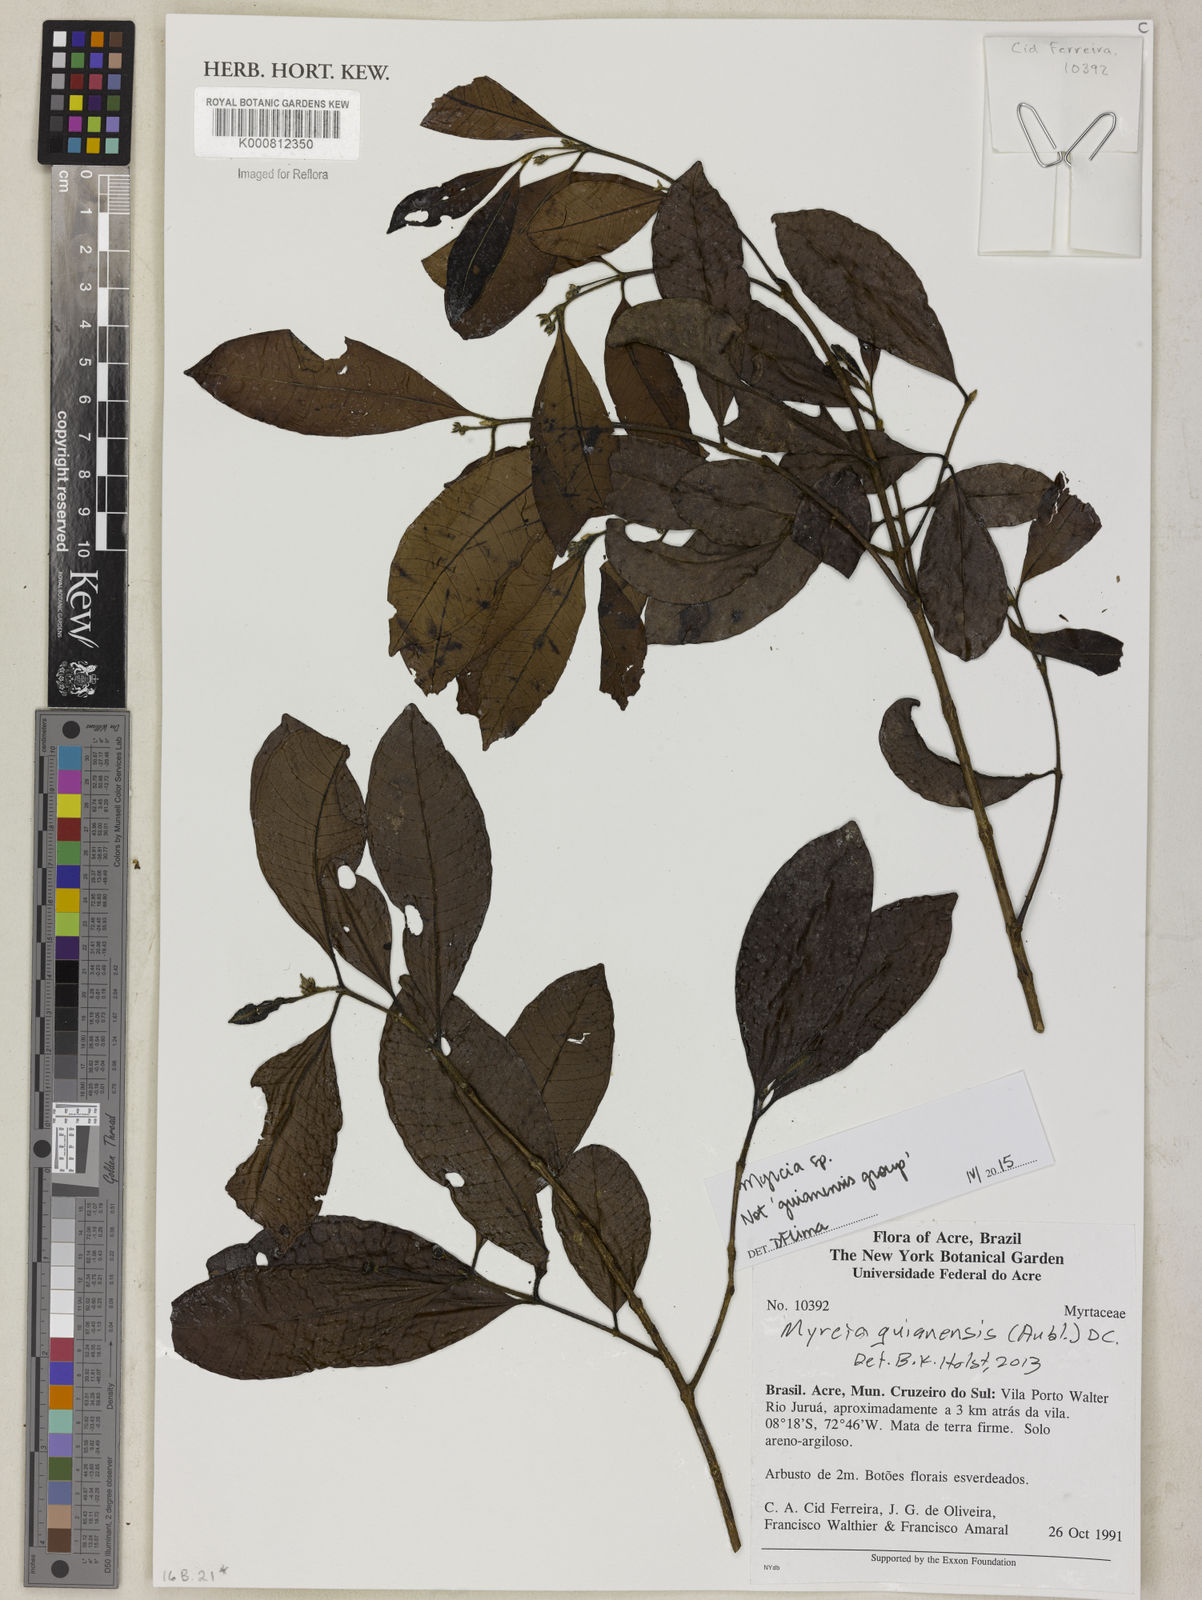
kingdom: Plantae
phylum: Tracheophyta
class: Magnoliopsida
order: Myrtales
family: Myrtaceae
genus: Myrcia
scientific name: Myrcia aliena
